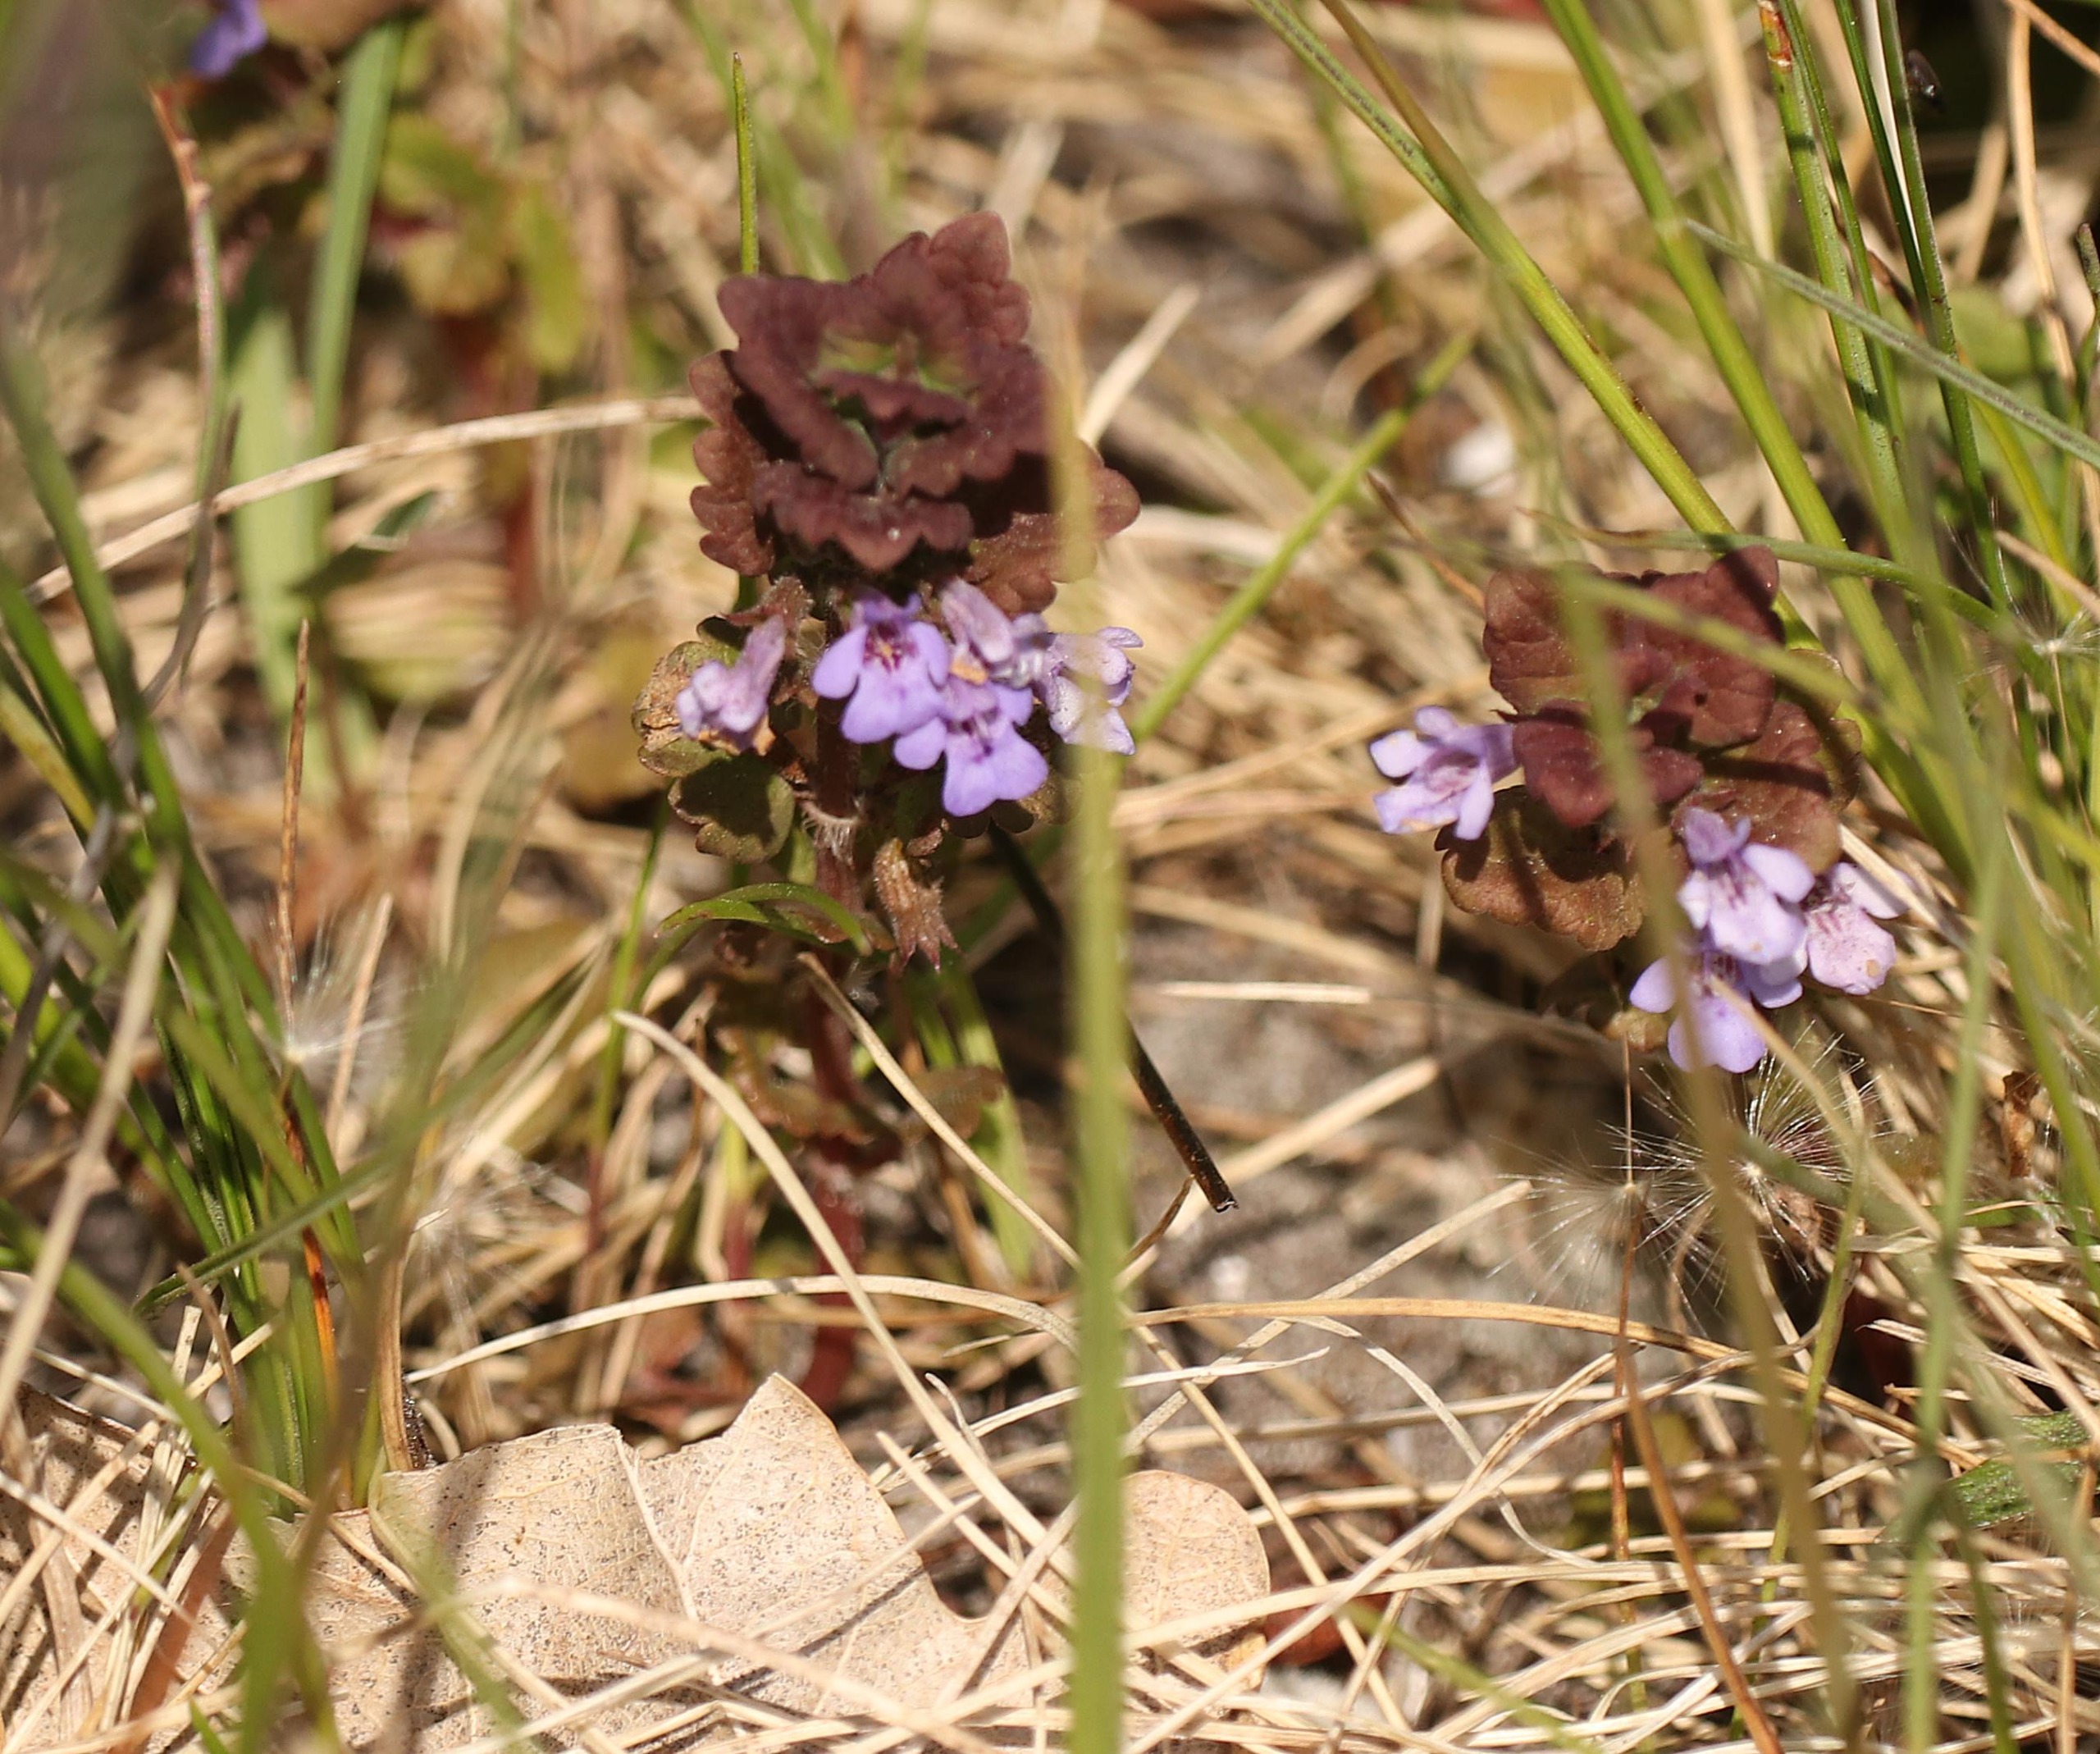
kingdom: Plantae
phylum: Tracheophyta
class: Magnoliopsida
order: Lamiales
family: Lamiaceae
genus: Glechoma
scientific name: Glechoma hederacea
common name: Korsknap
